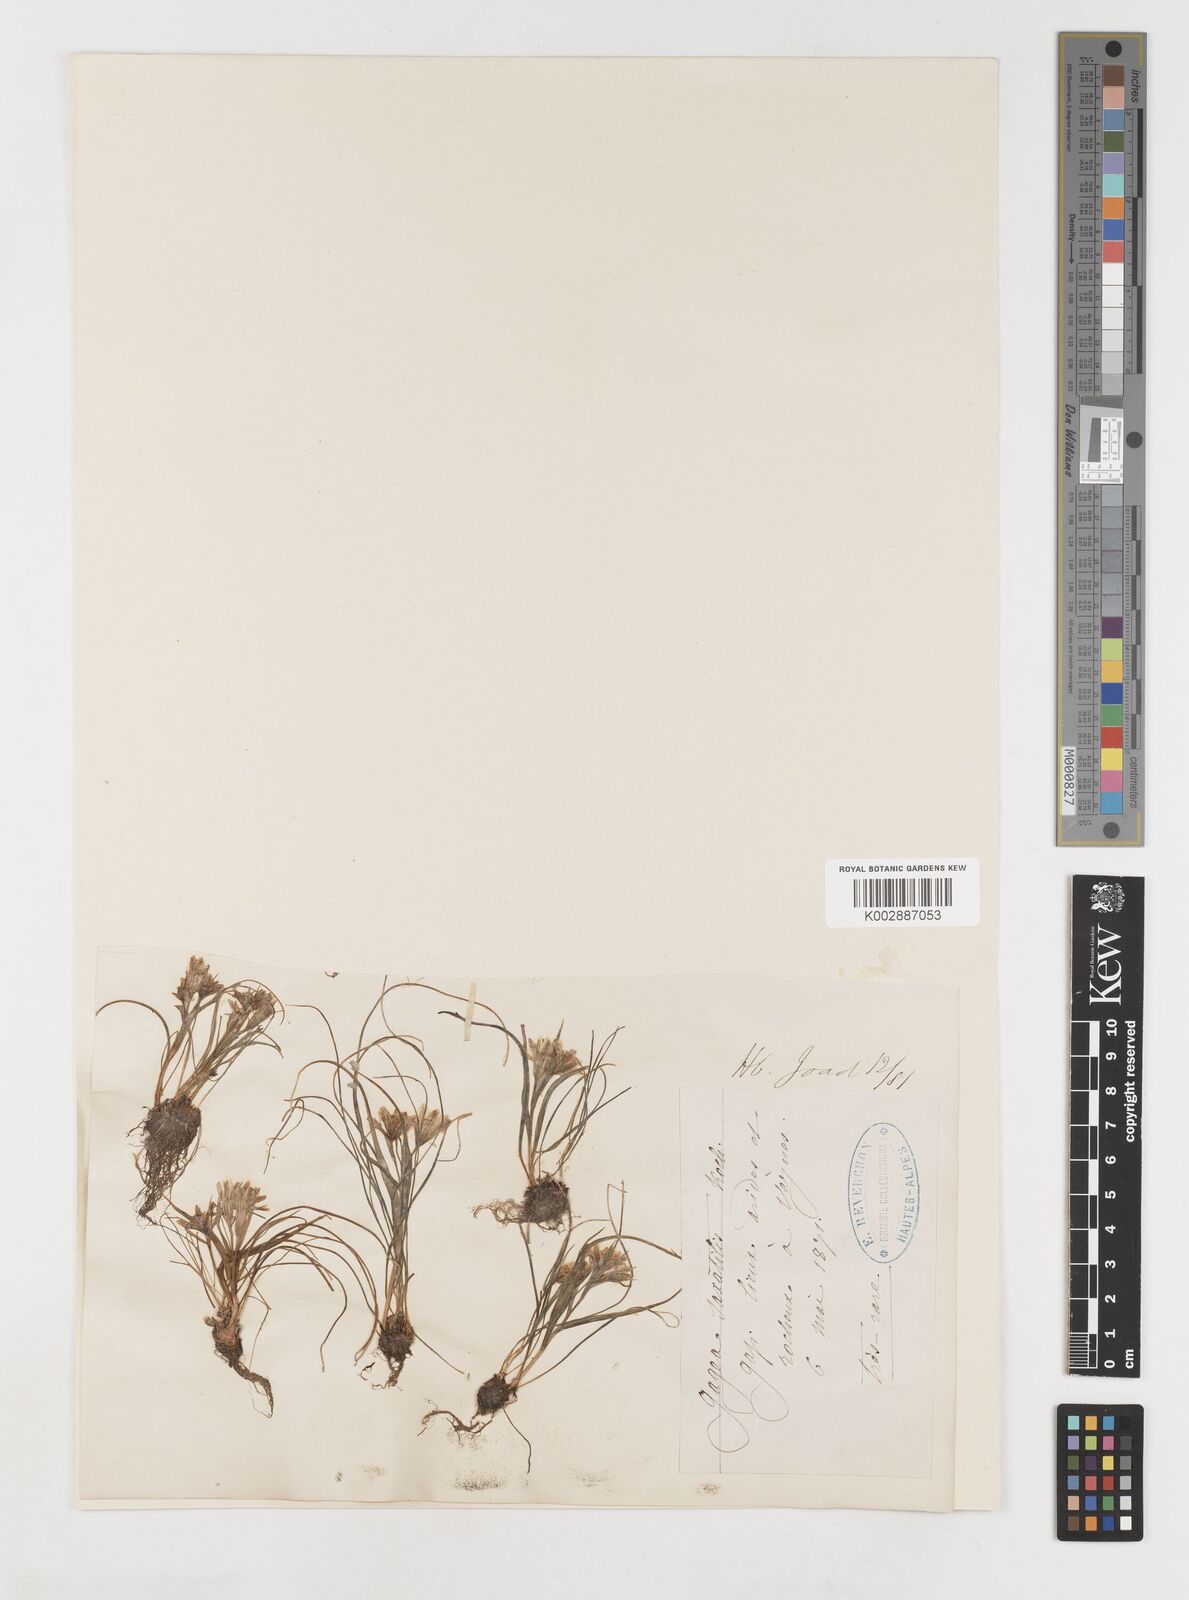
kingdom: Plantae
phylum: Tracheophyta
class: Liliopsida
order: Liliales
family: Liliaceae
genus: Gagea
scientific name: Gagea bohemica
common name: Early star-of-bethlehem
